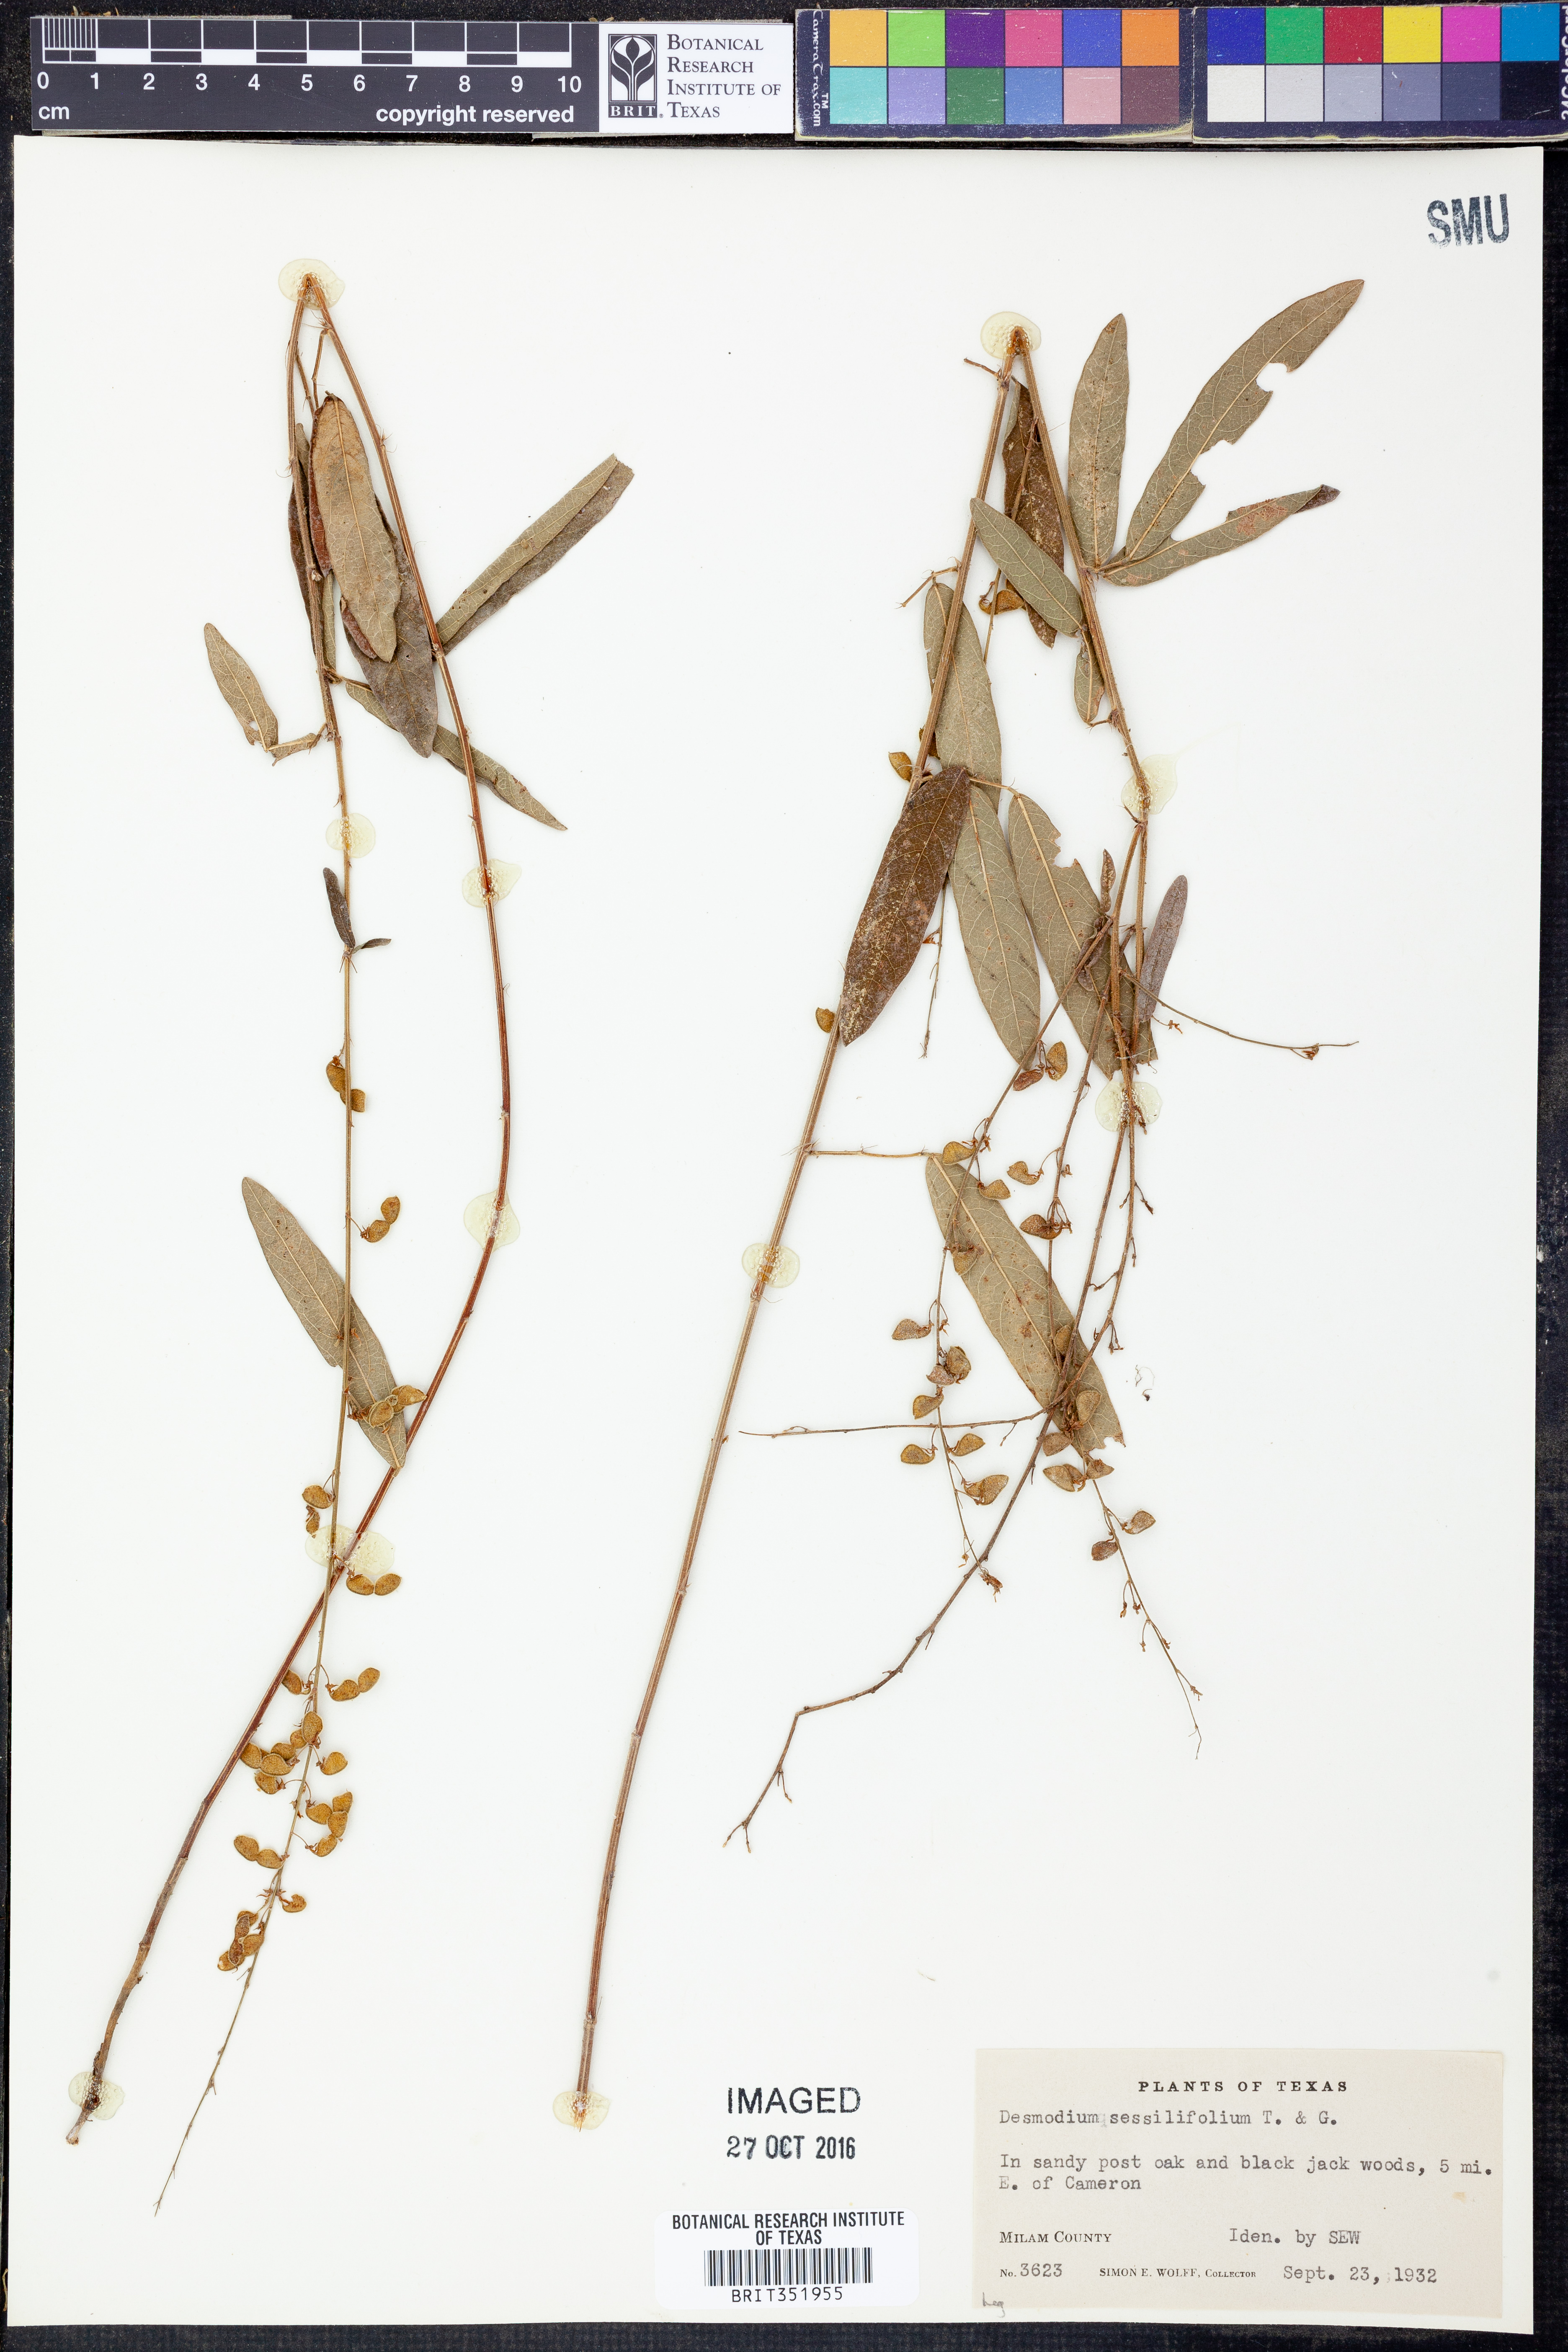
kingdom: Plantae
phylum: Tracheophyta
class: Magnoliopsida
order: Fabales
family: Fabaceae
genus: Desmodium
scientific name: Desmodium sessilifolium
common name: Sessile tick-clover
